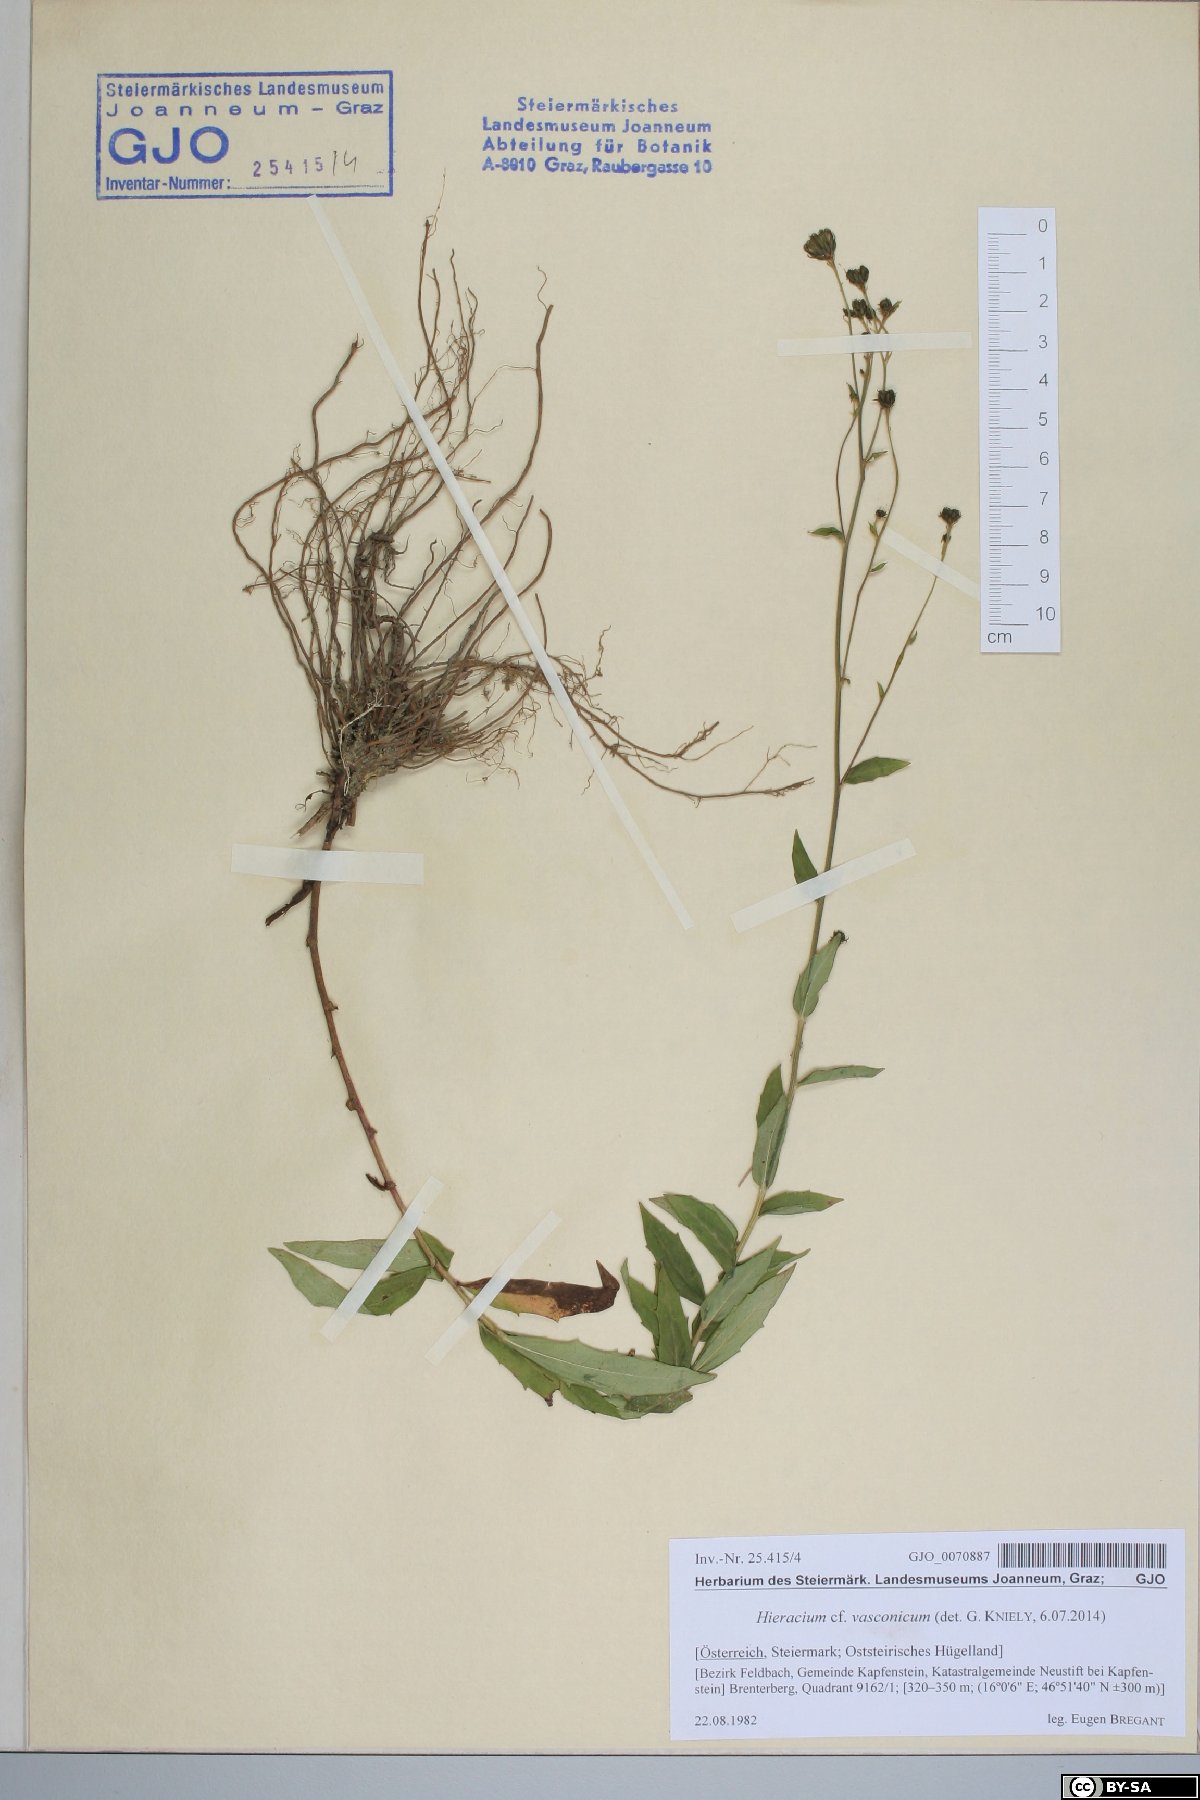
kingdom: Plantae
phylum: Tracheophyta
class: Magnoliopsida
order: Asterales
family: Asteraceae
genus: Hieracium
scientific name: Hieracium vasconicum
